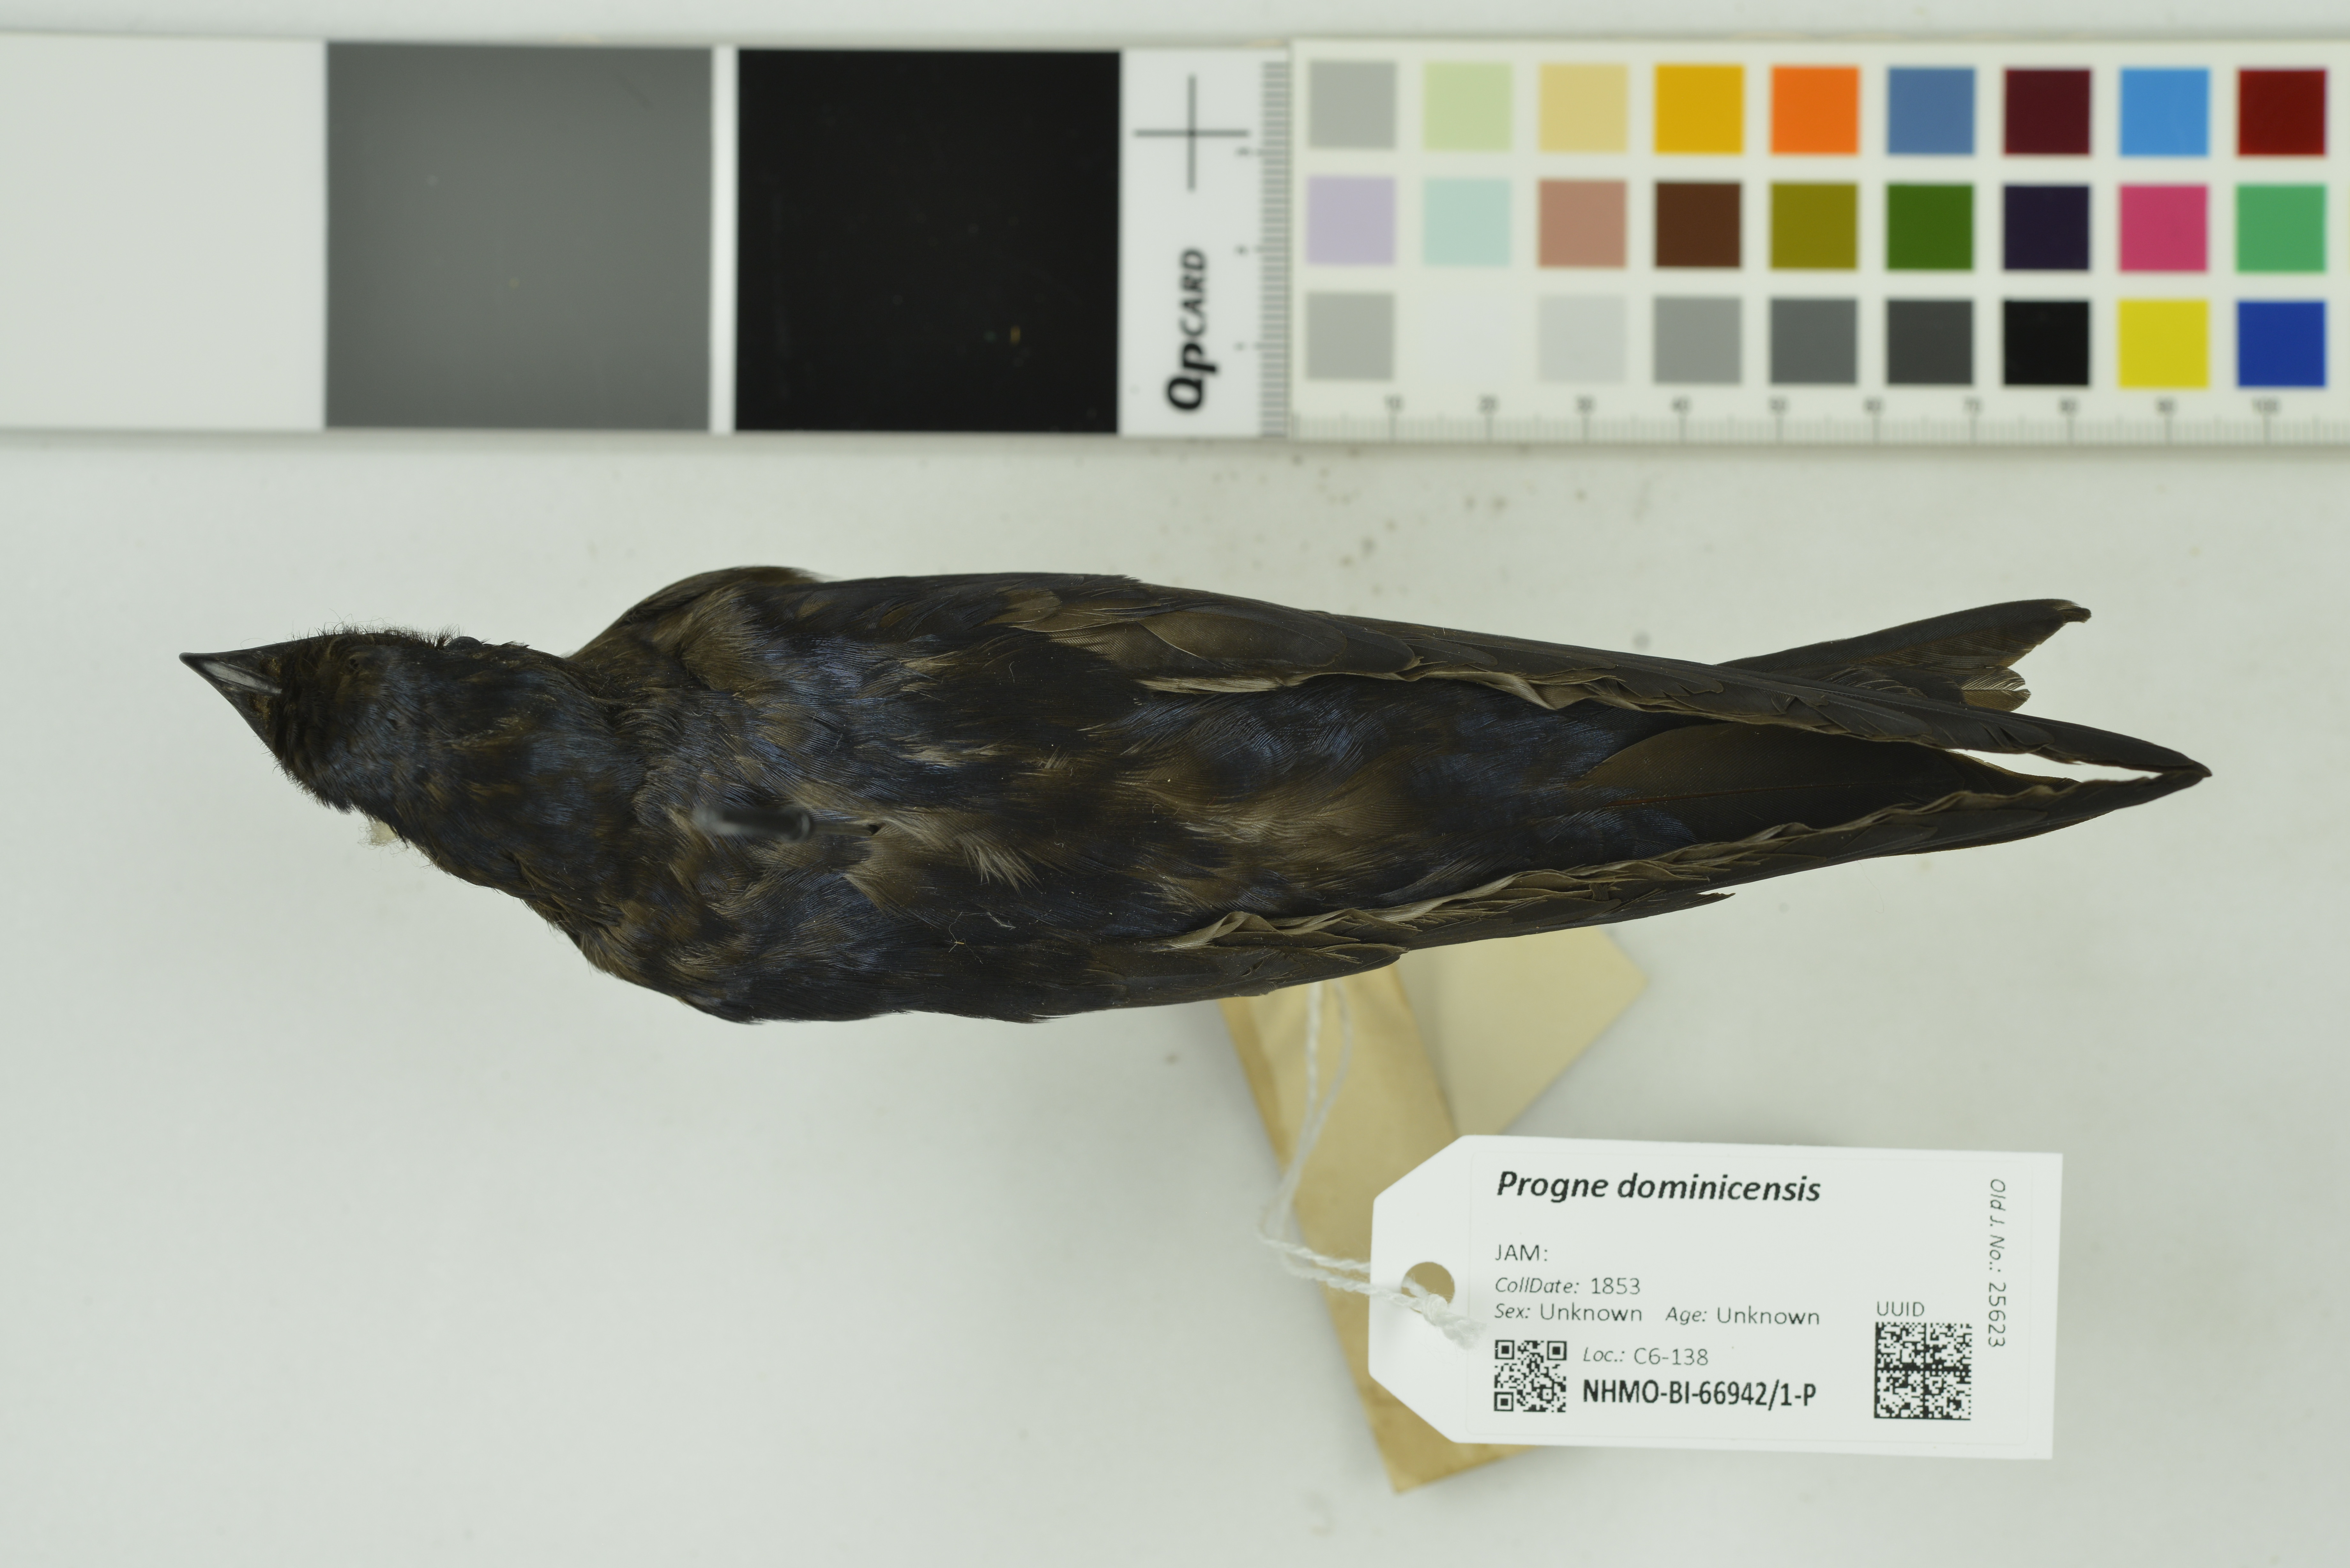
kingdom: Animalia
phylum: Chordata
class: Aves
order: Passeriformes
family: Hirundinidae
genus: Progne
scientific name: Progne dominicensis
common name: Caribbean martin
